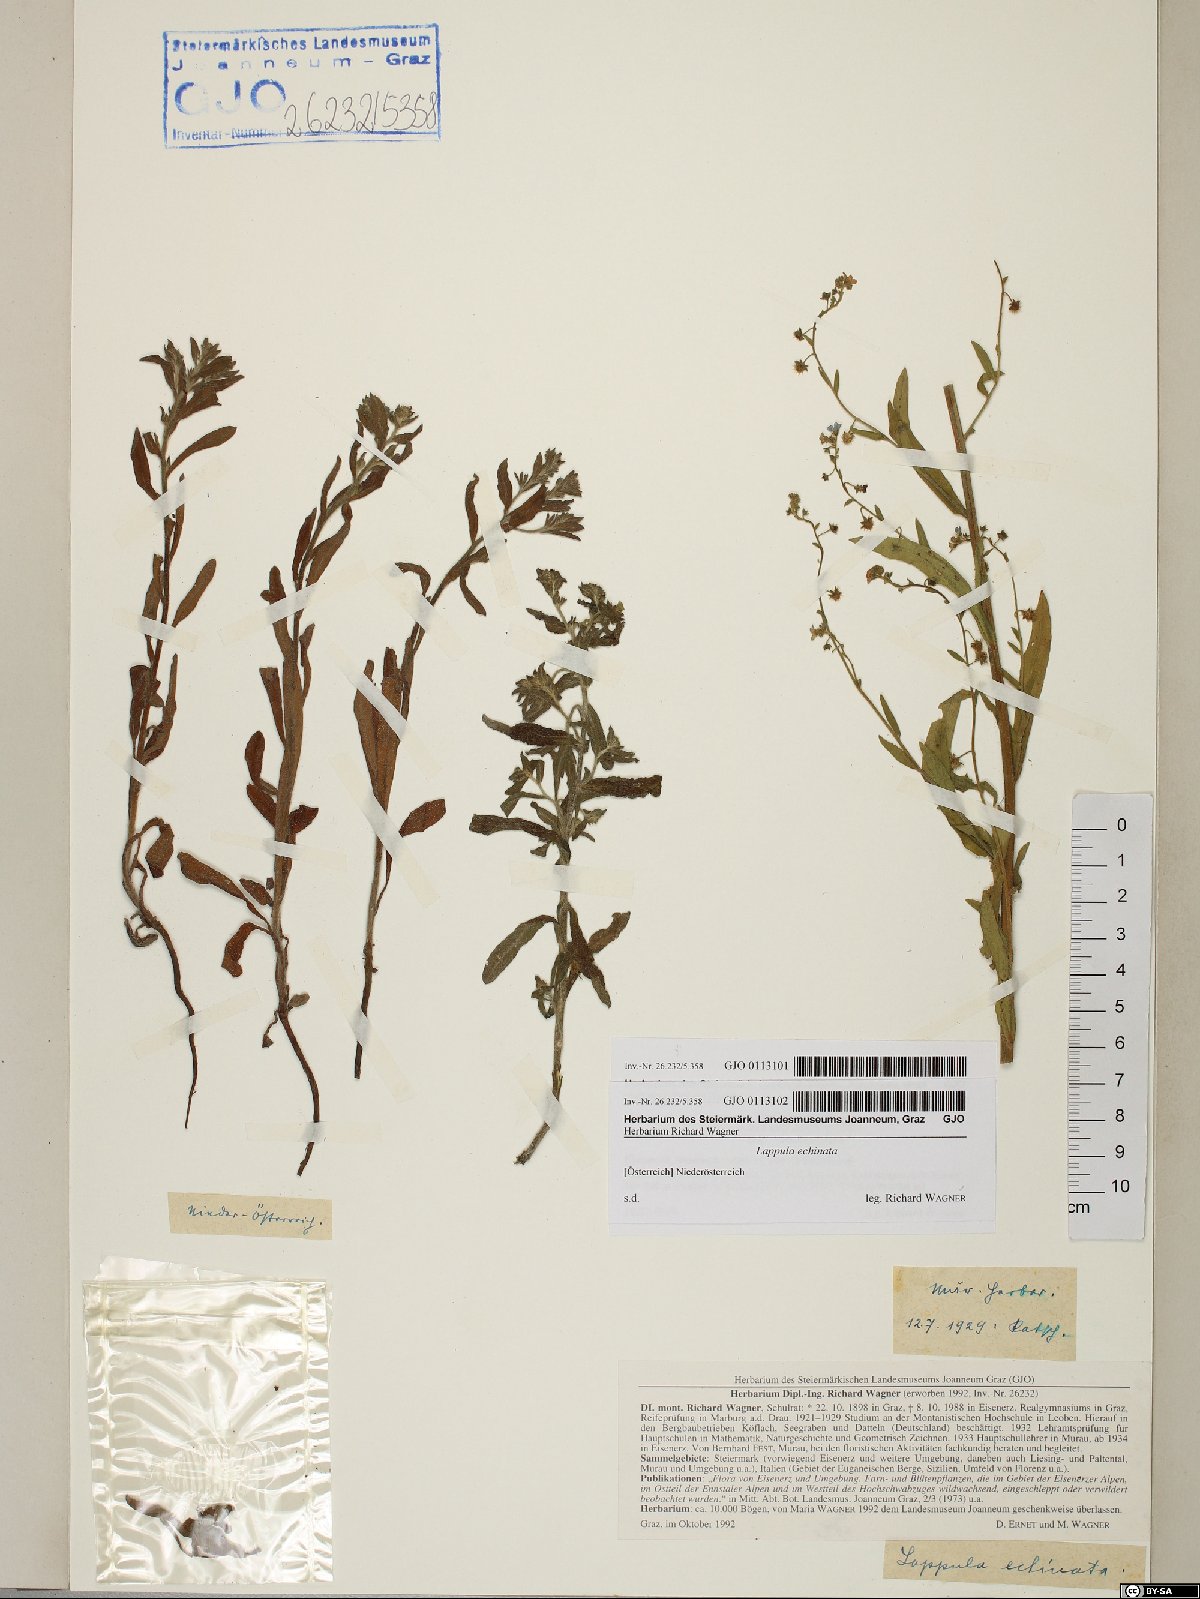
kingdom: Plantae
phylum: Tracheophyta
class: Magnoliopsida
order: Boraginales
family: Boraginaceae
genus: Hackelia
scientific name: Hackelia deflexa
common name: Nodding stickseed
